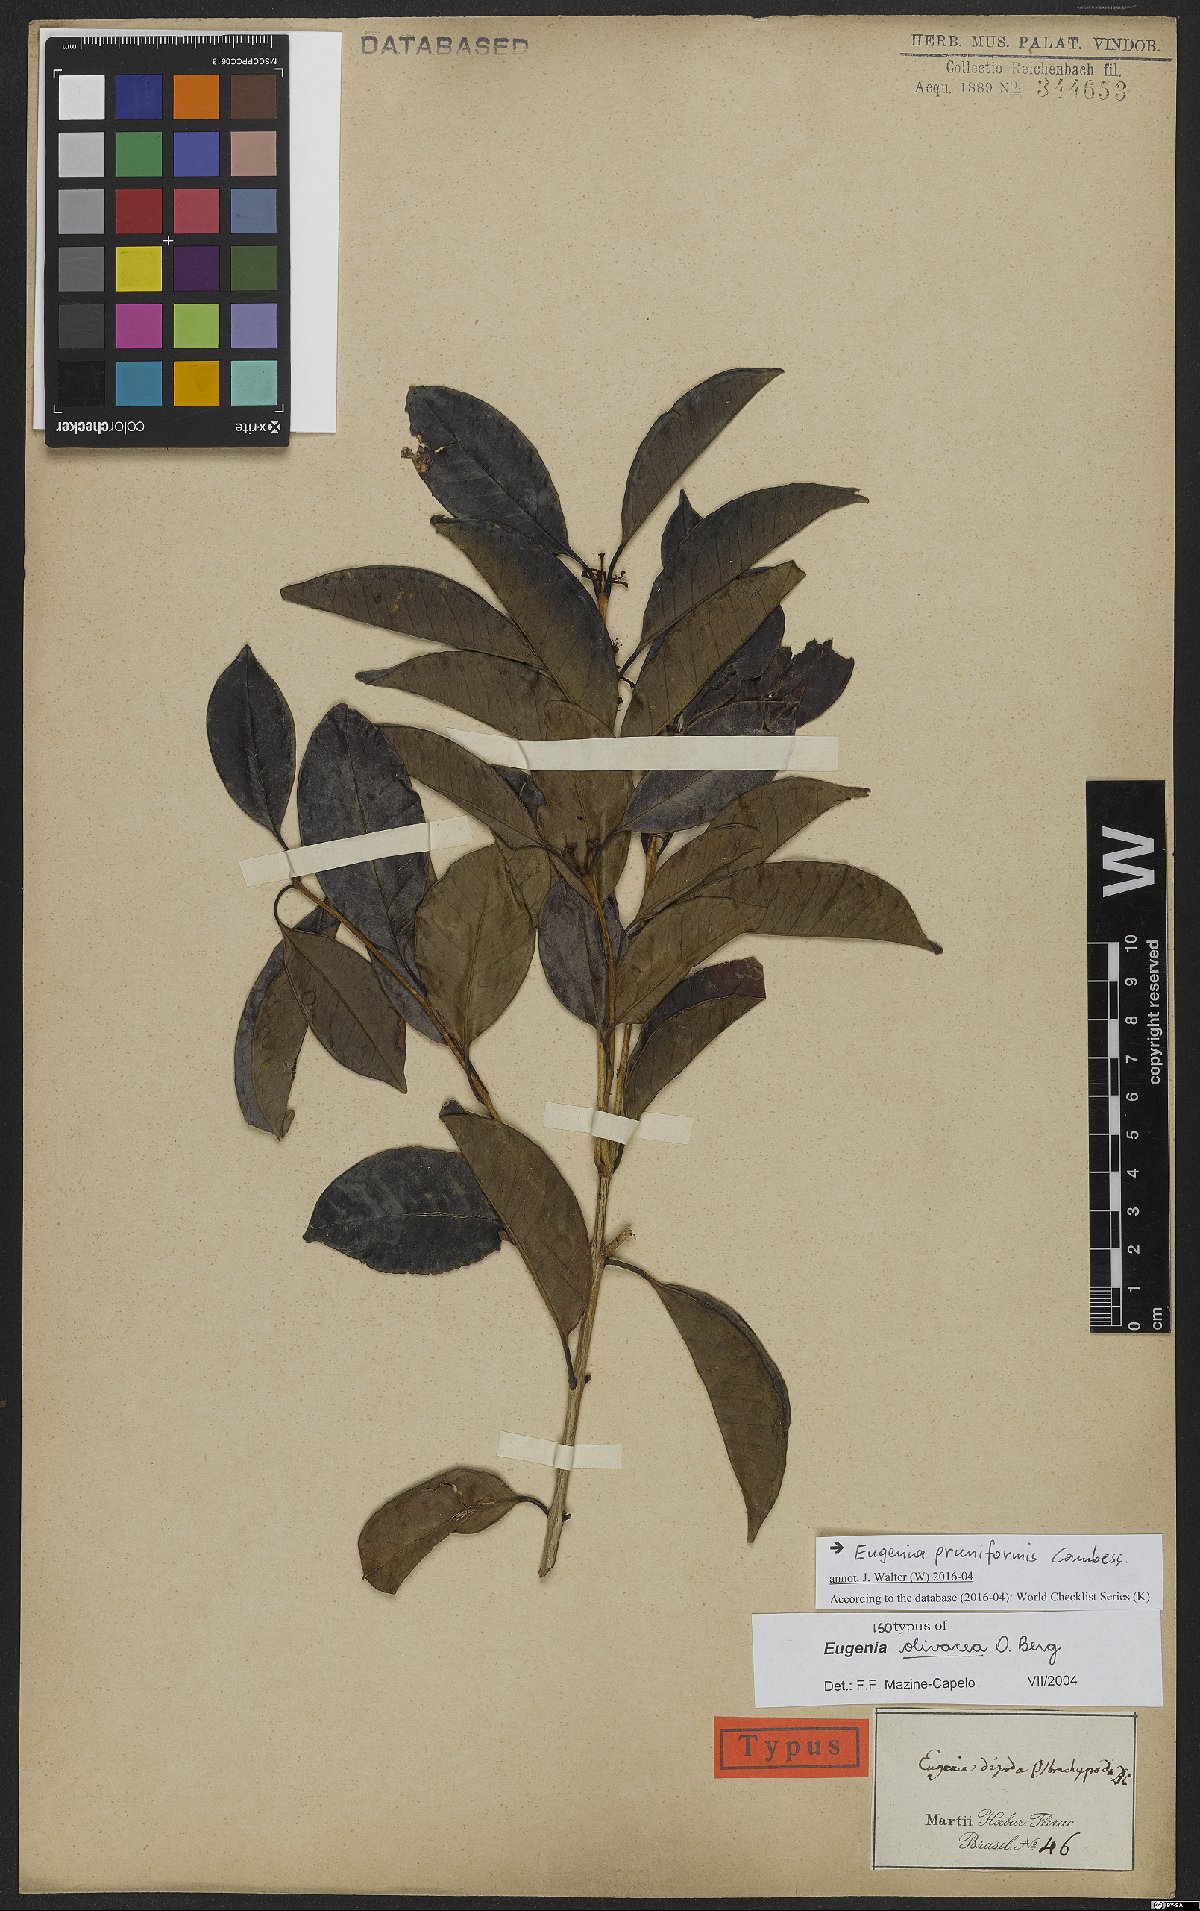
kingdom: Plantae
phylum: Tracheophyta
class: Magnoliopsida
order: Myrtales
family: Myrtaceae
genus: Eugenia
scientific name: Eugenia pruniformis
